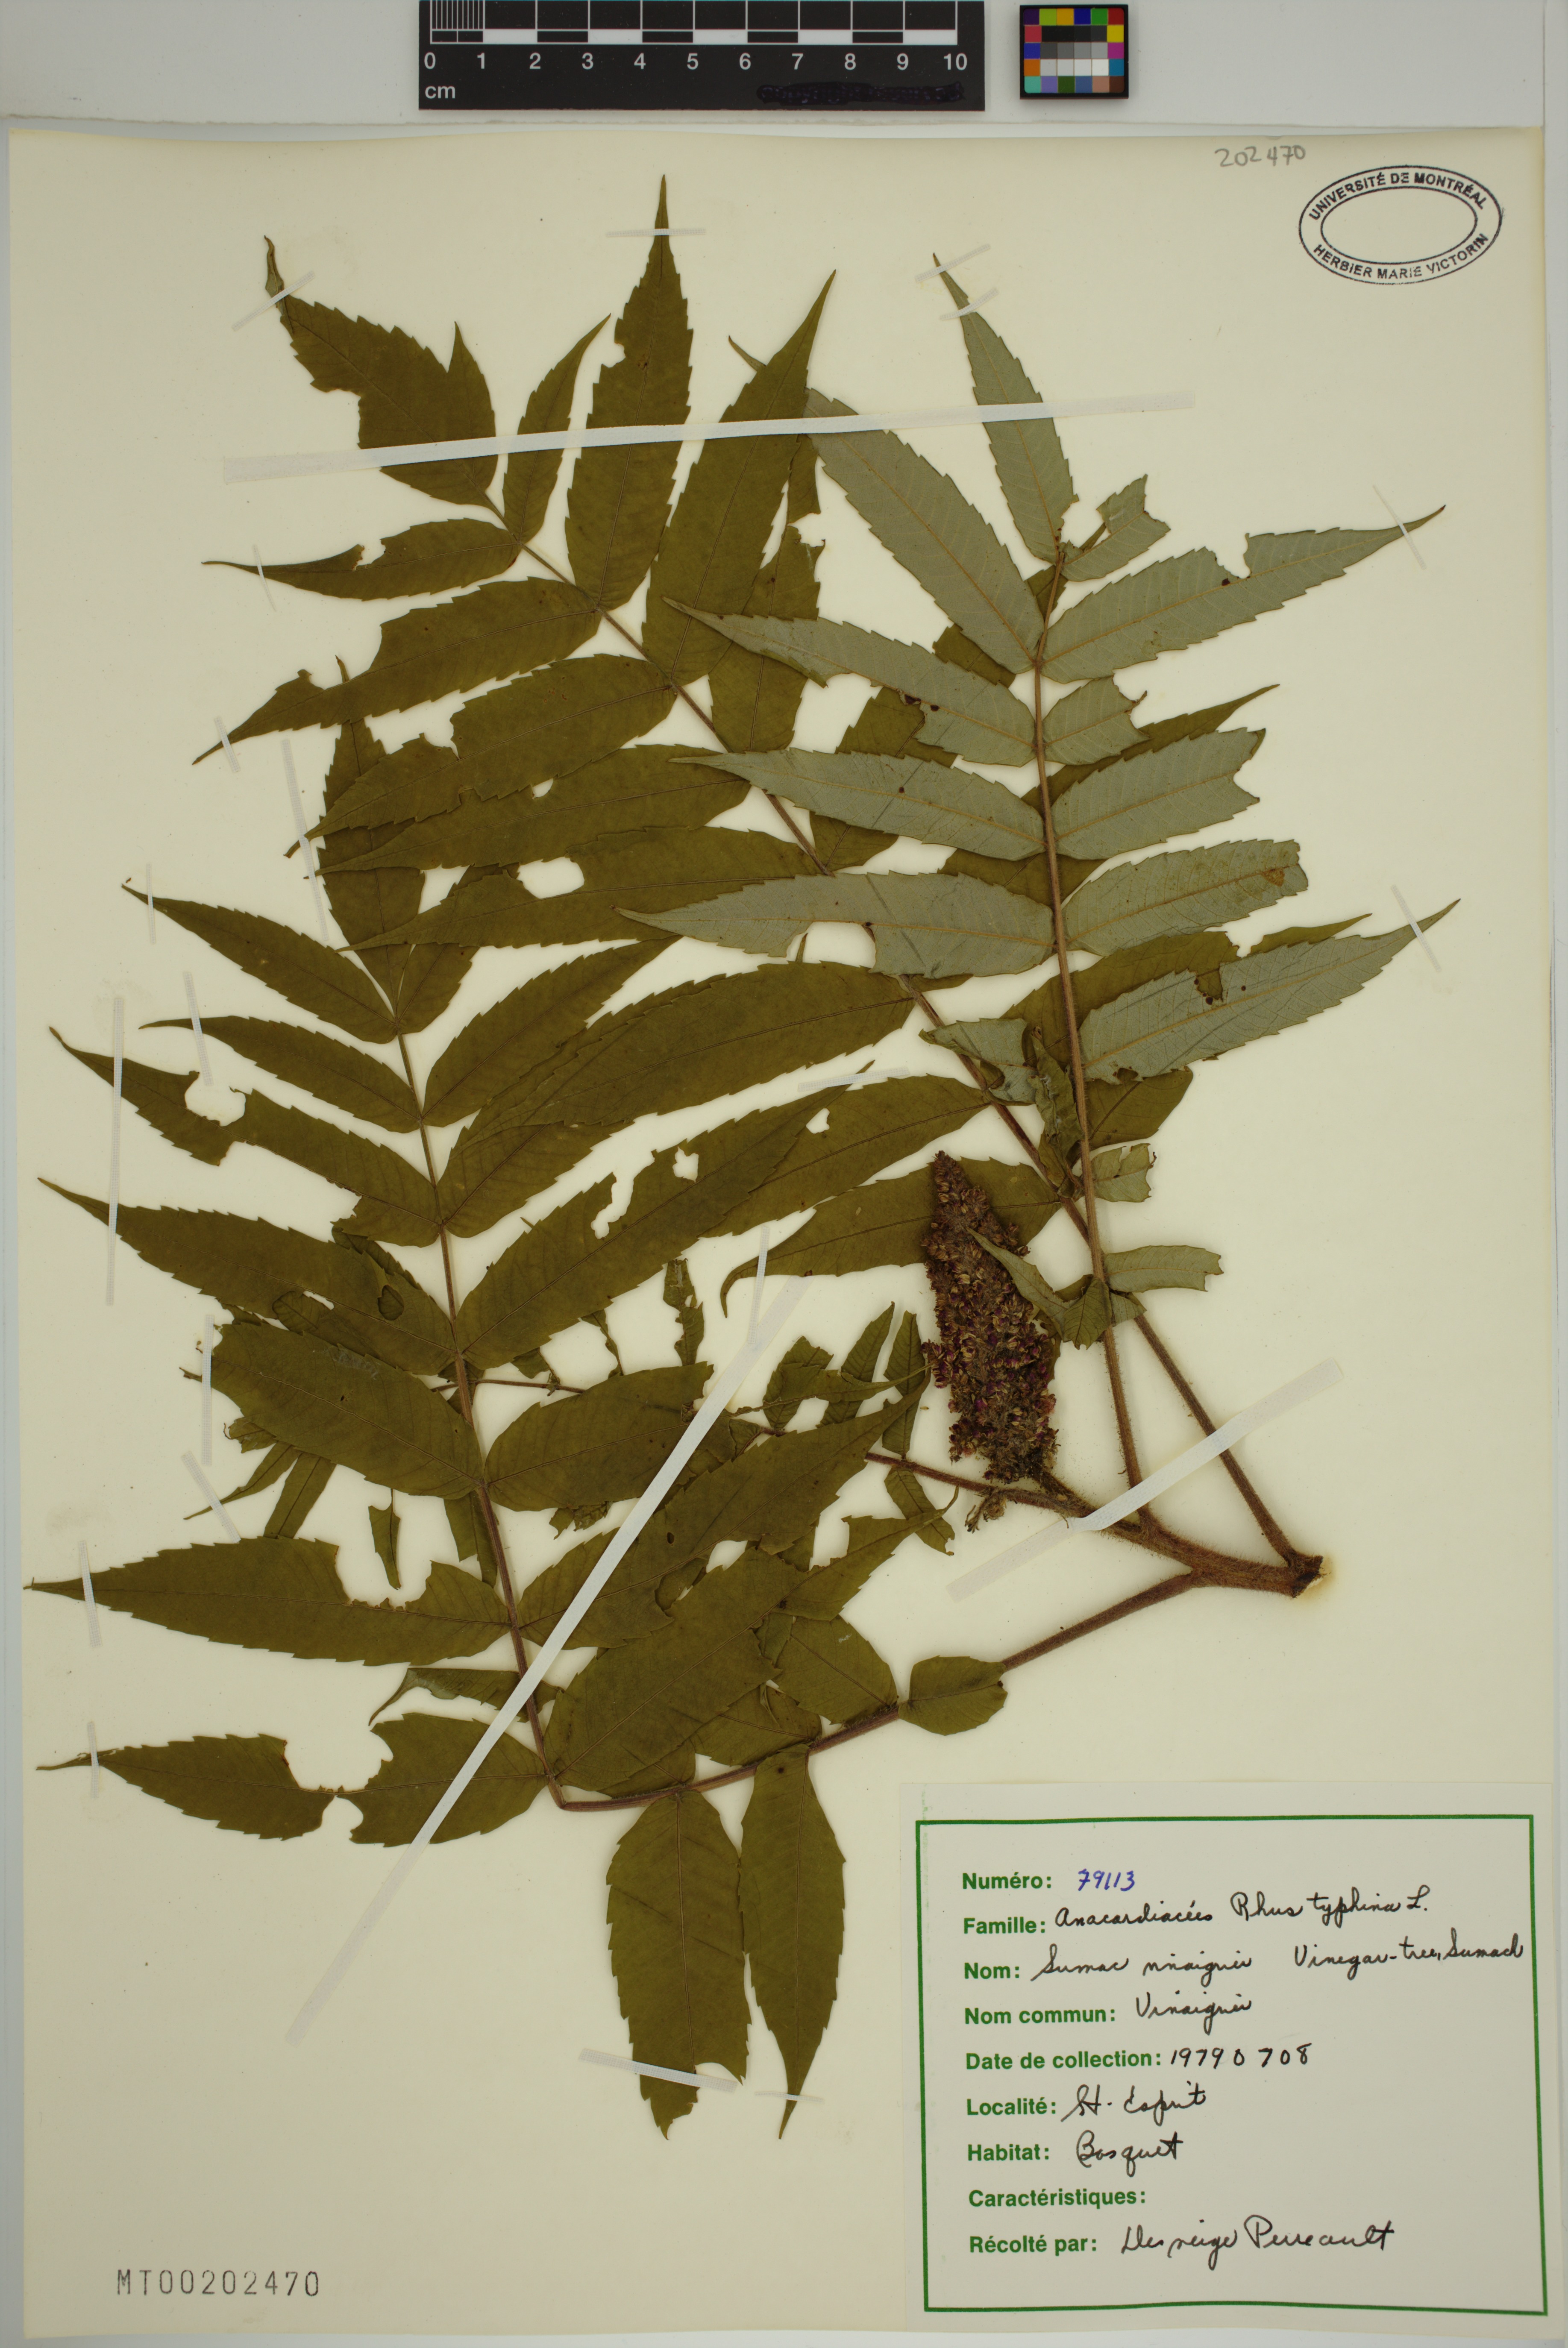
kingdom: Plantae
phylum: Tracheophyta
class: Magnoliopsida
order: Sapindales
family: Anacardiaceae
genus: Rhus
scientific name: Rhus typhina
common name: Staghorn sumac
